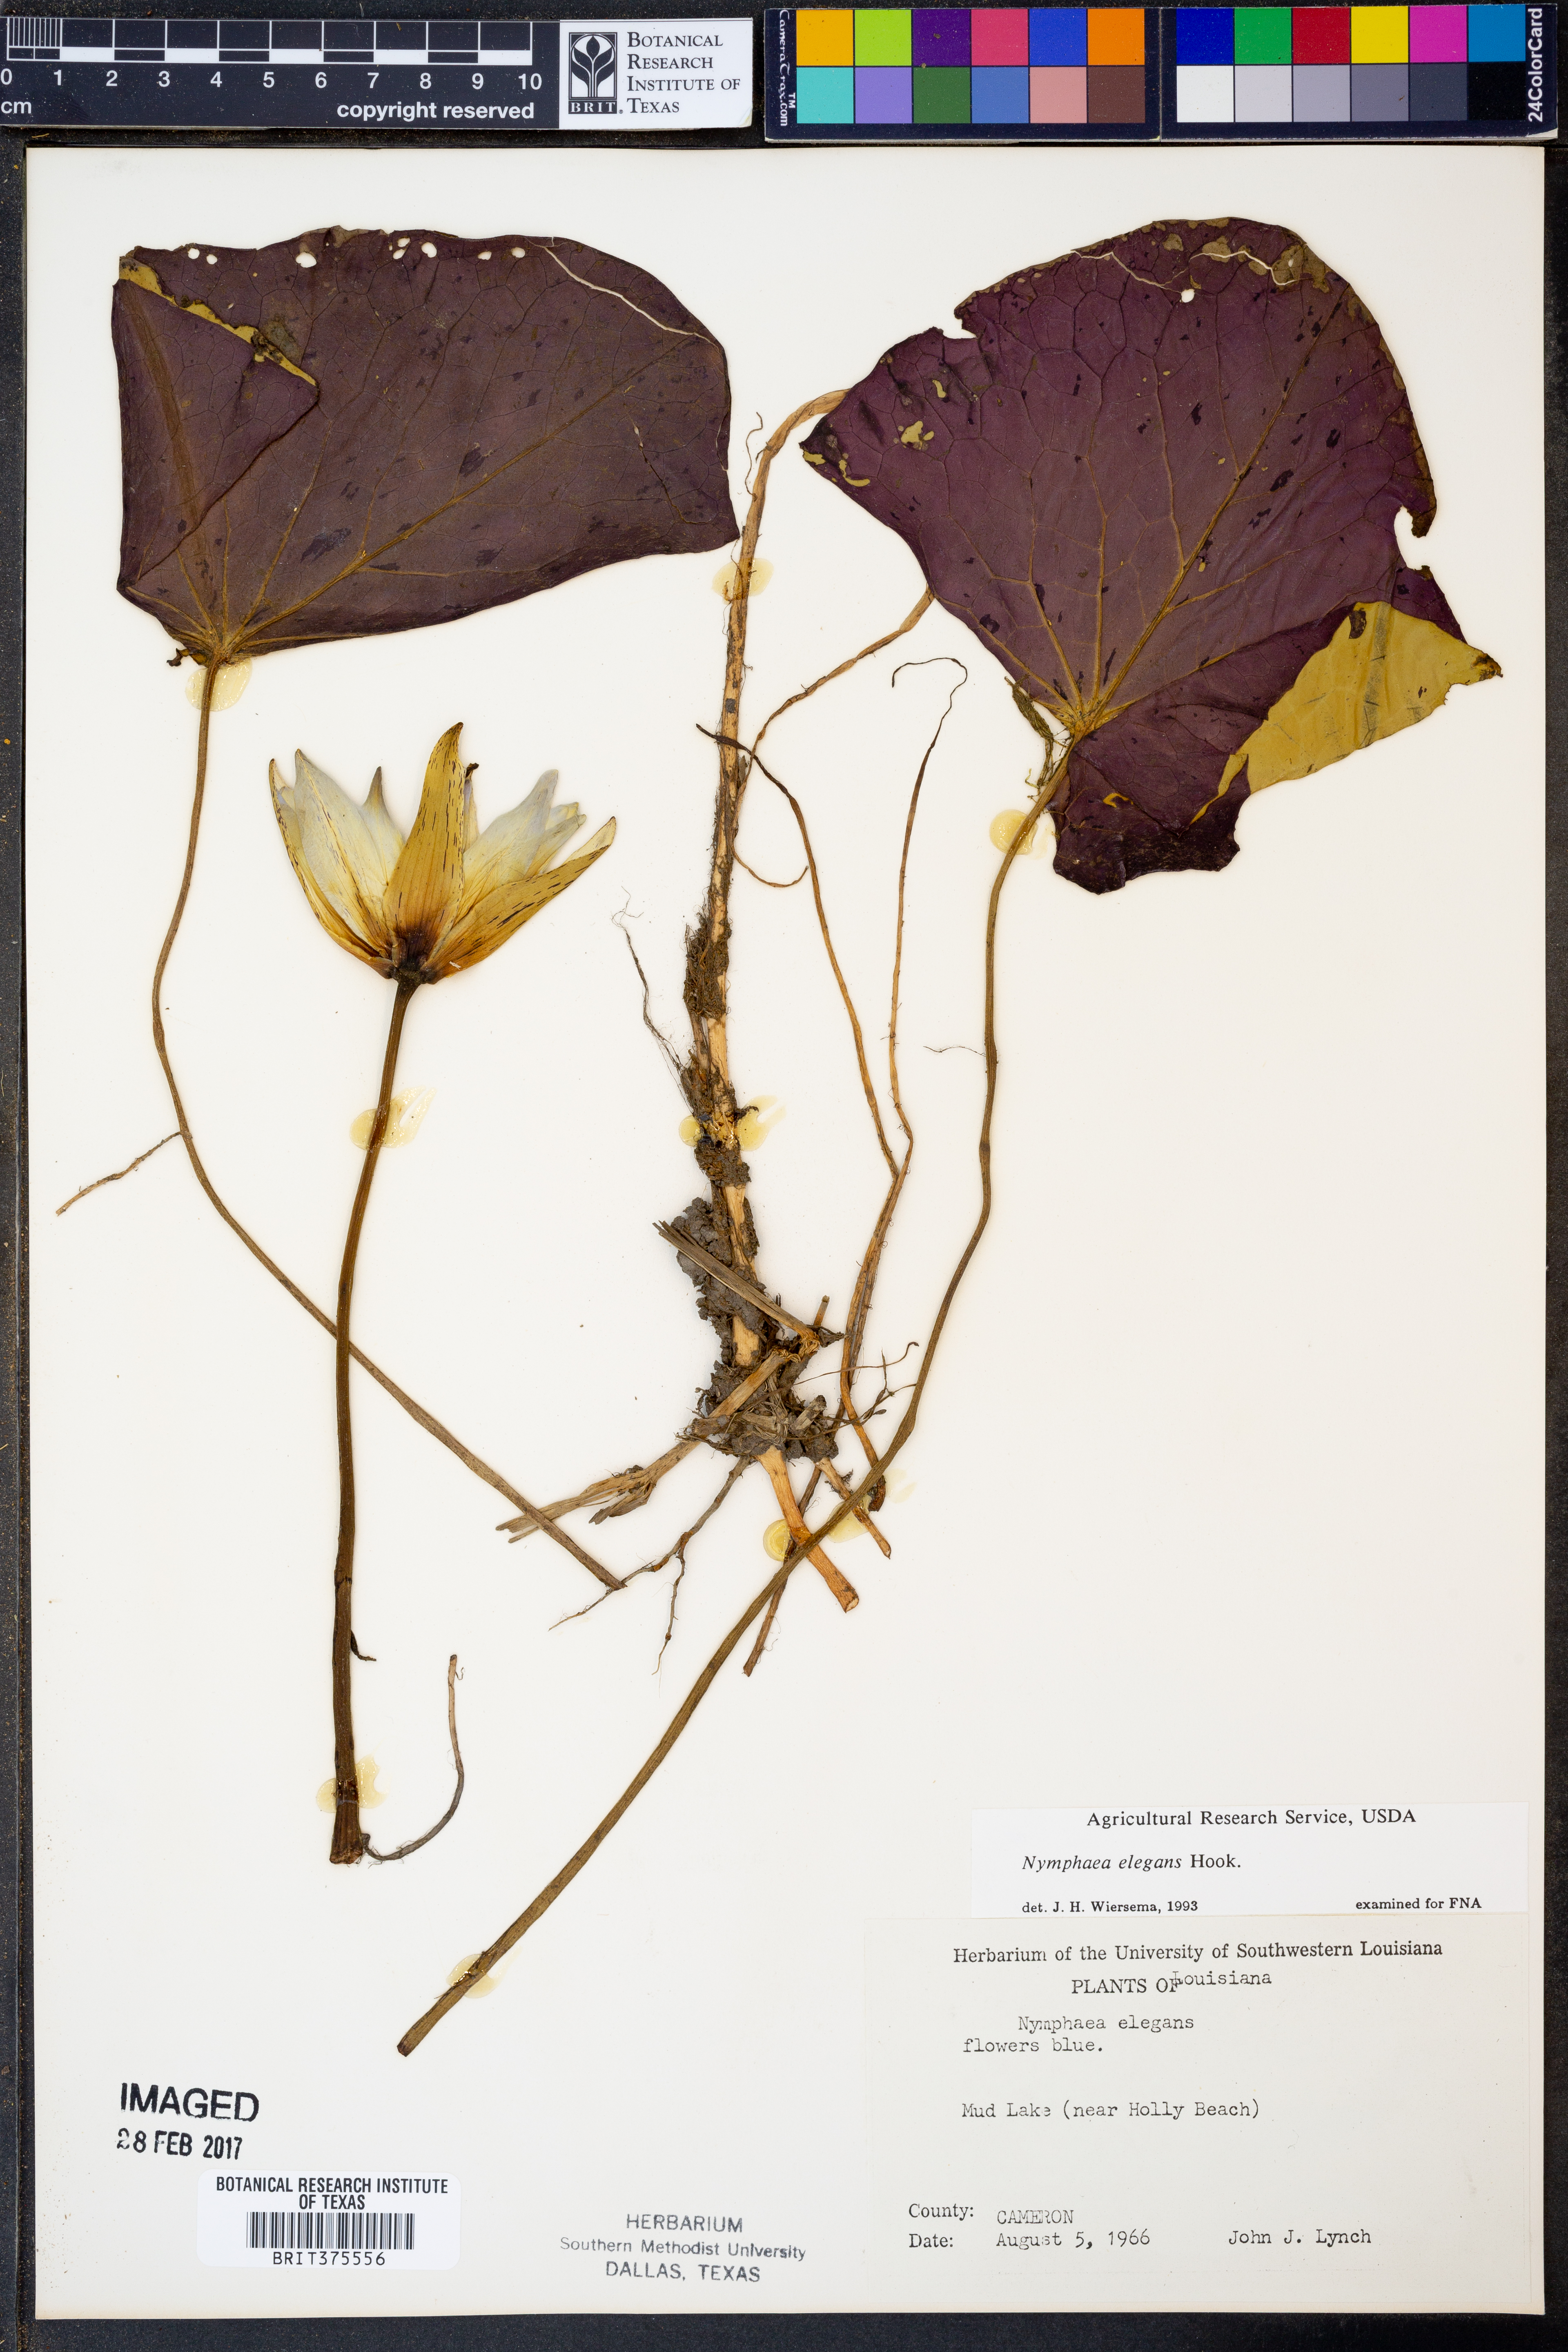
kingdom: Plantae
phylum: Tracheophyta
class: Magnoliopsida
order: Nymphaeales
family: Nymphaeaceae
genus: Nymphaea
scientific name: Nymphaea elegans
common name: Blue water-lily
